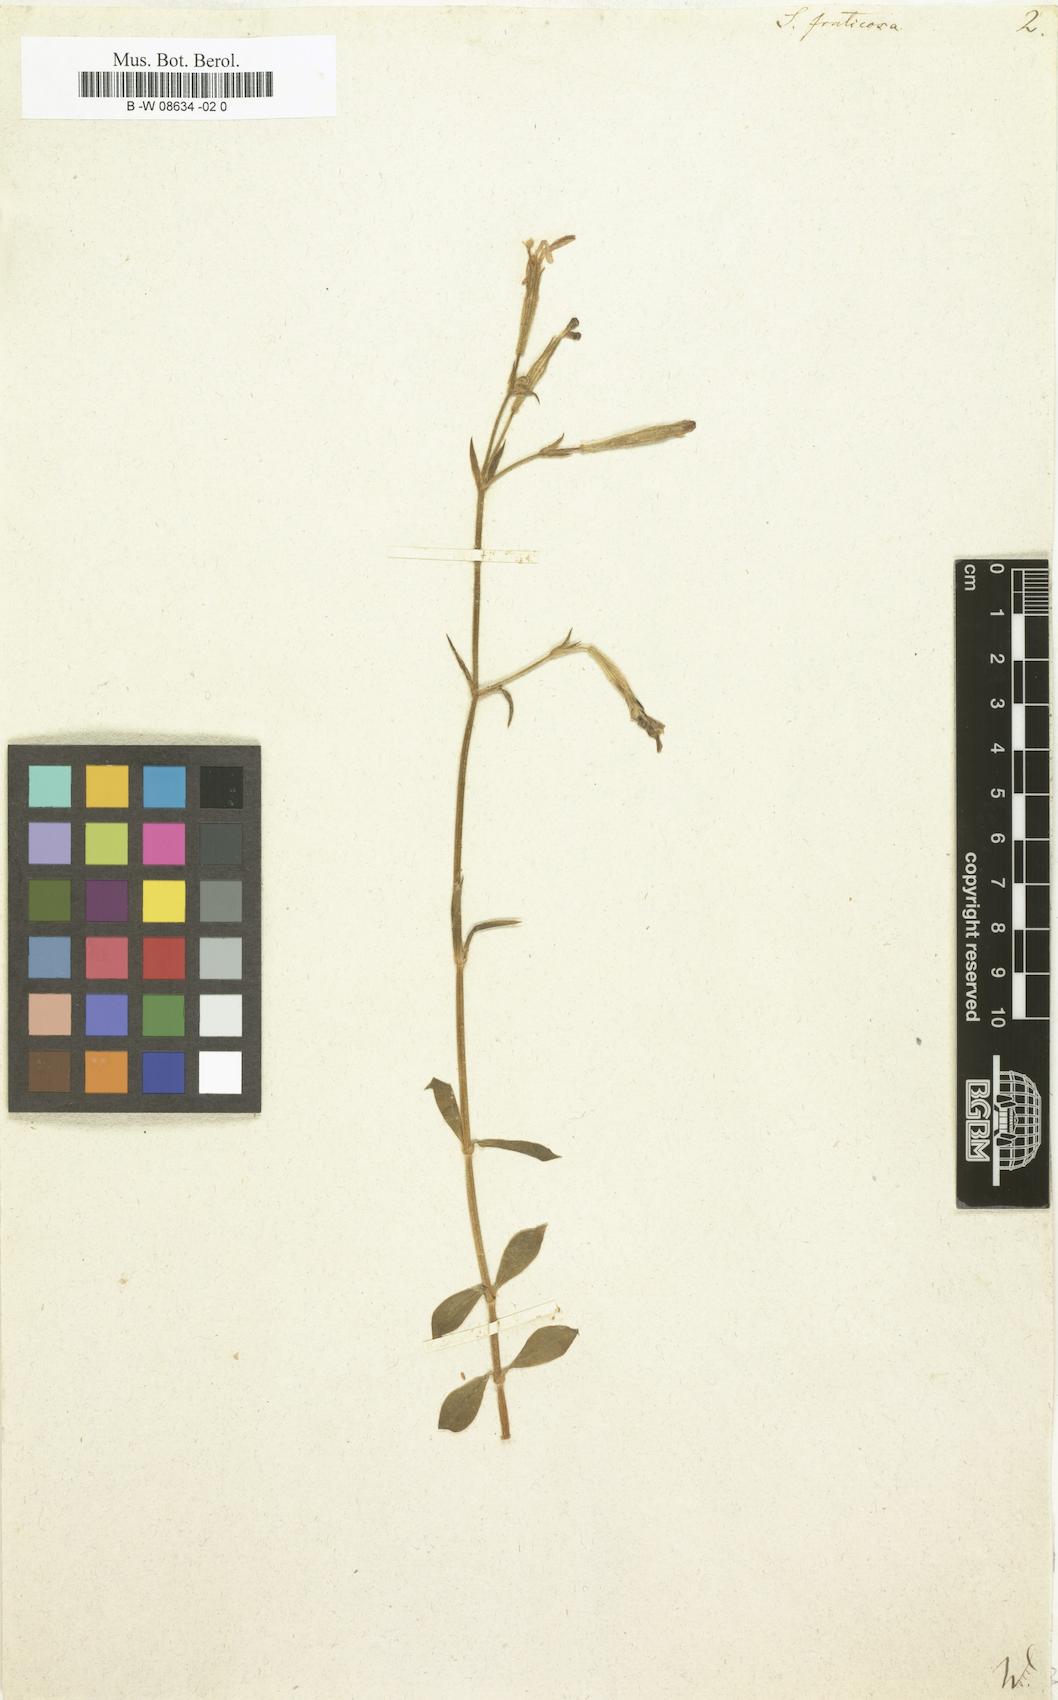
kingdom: Plantae
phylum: Tracheophyta
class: Magnoliopsida
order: Caryophyllales
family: Caryophyllaceae
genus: Silene
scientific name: Silene fruticosa
